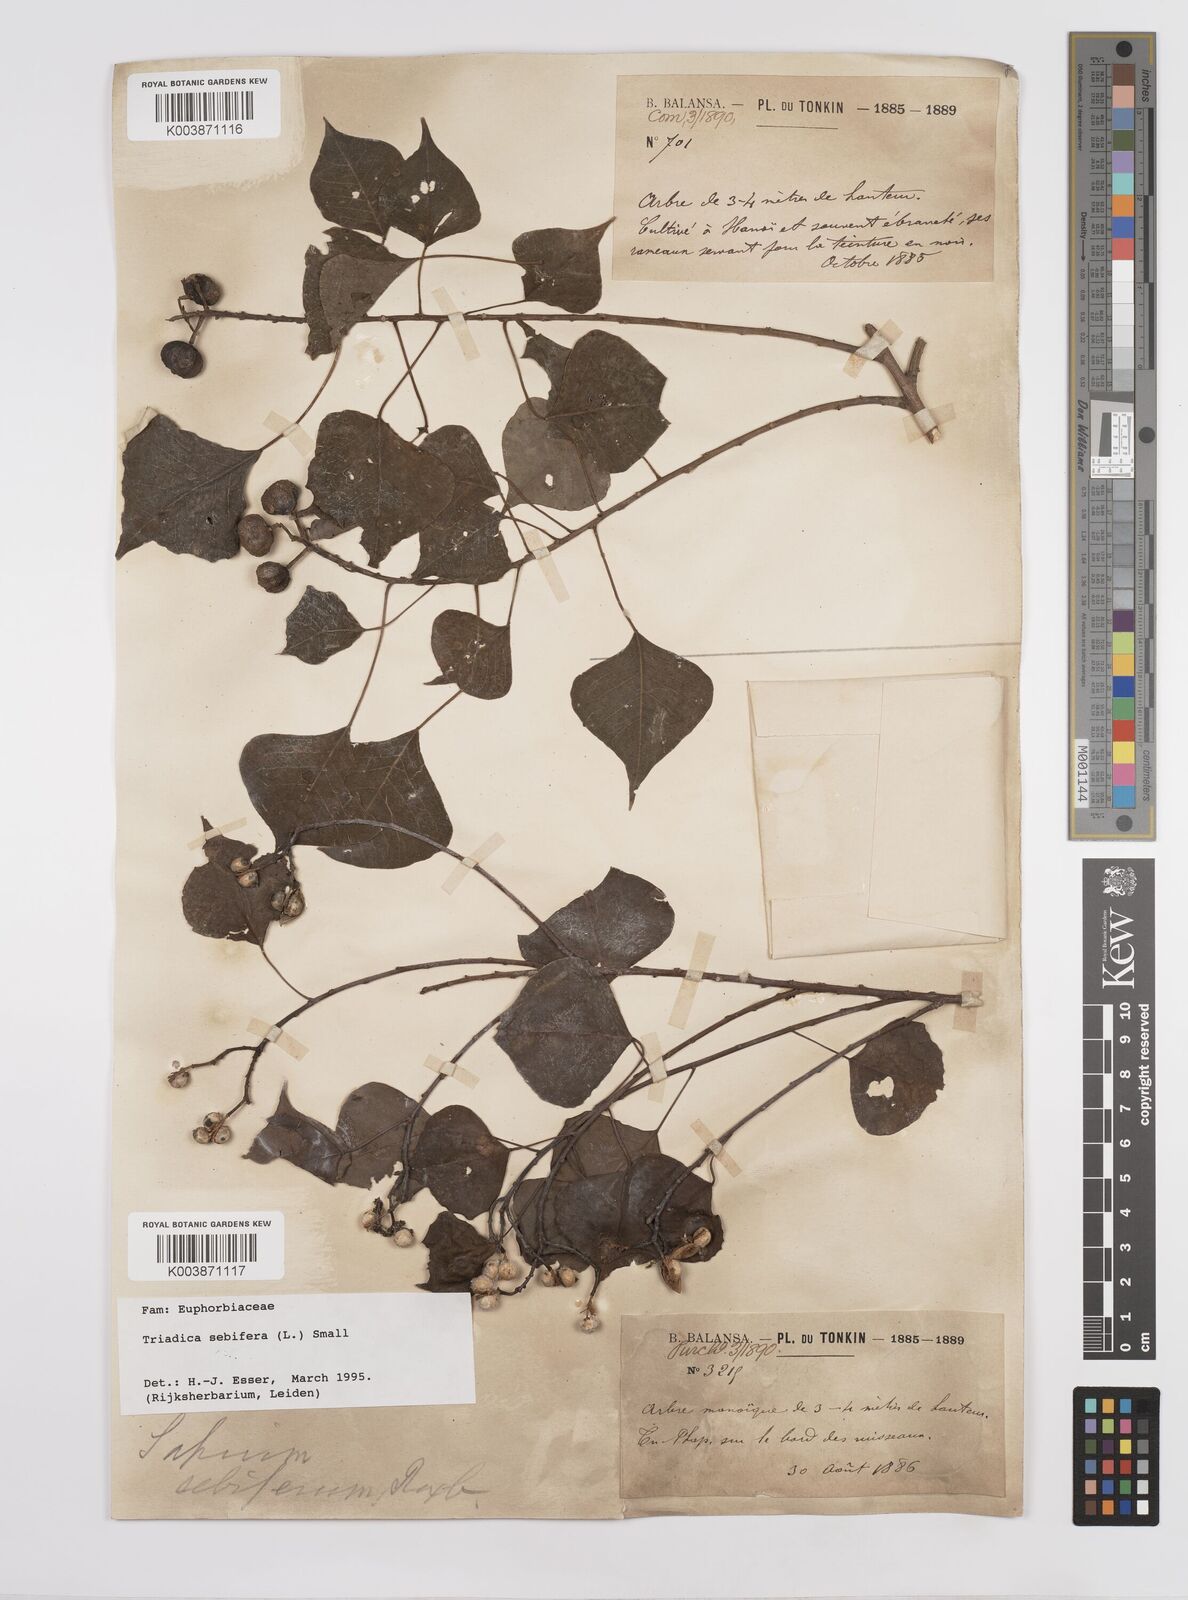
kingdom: Plantae
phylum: Tracheophyta
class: Magnoliopsida
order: Malpighiales
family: Euphorbiaceae
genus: Triadica
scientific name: Triadica sebifera
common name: Chinese tallow
